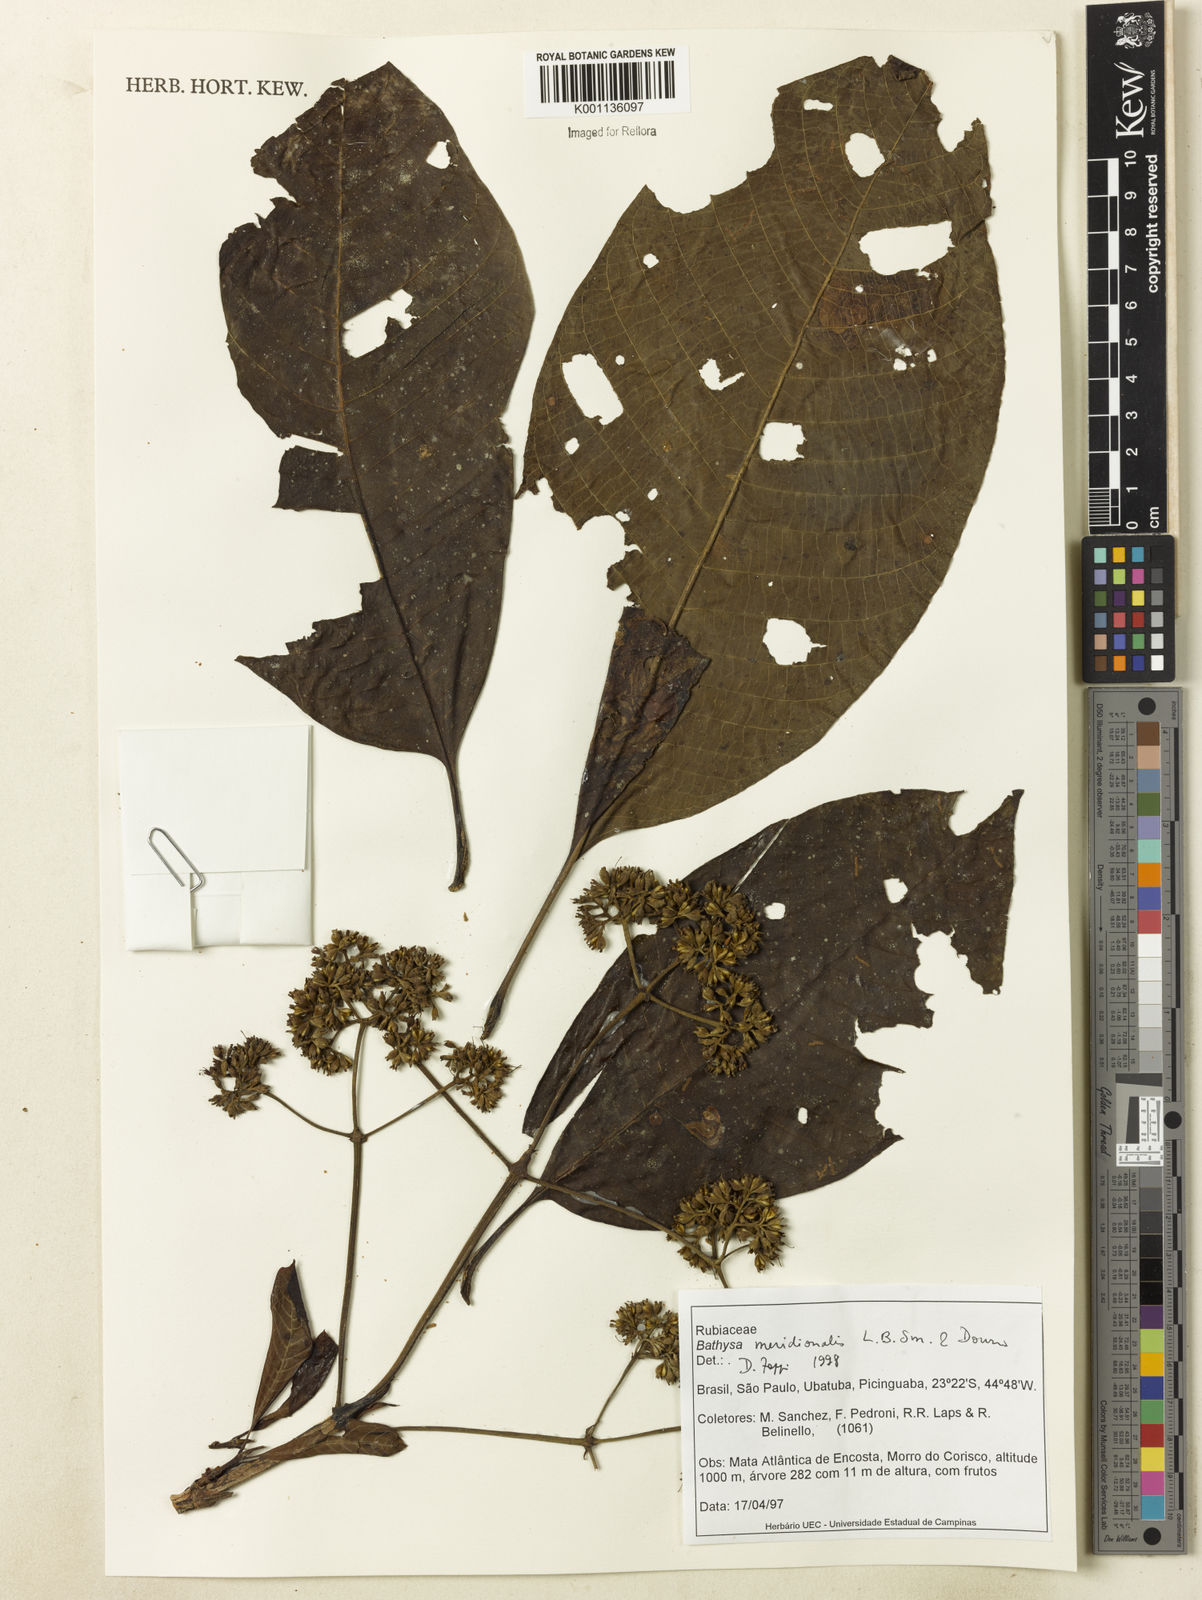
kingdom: Plantae
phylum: Tracheophyta
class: Magnoliopsida
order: Gentianales
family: Rubiaceae
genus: Bathysa
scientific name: Bathysa australis
